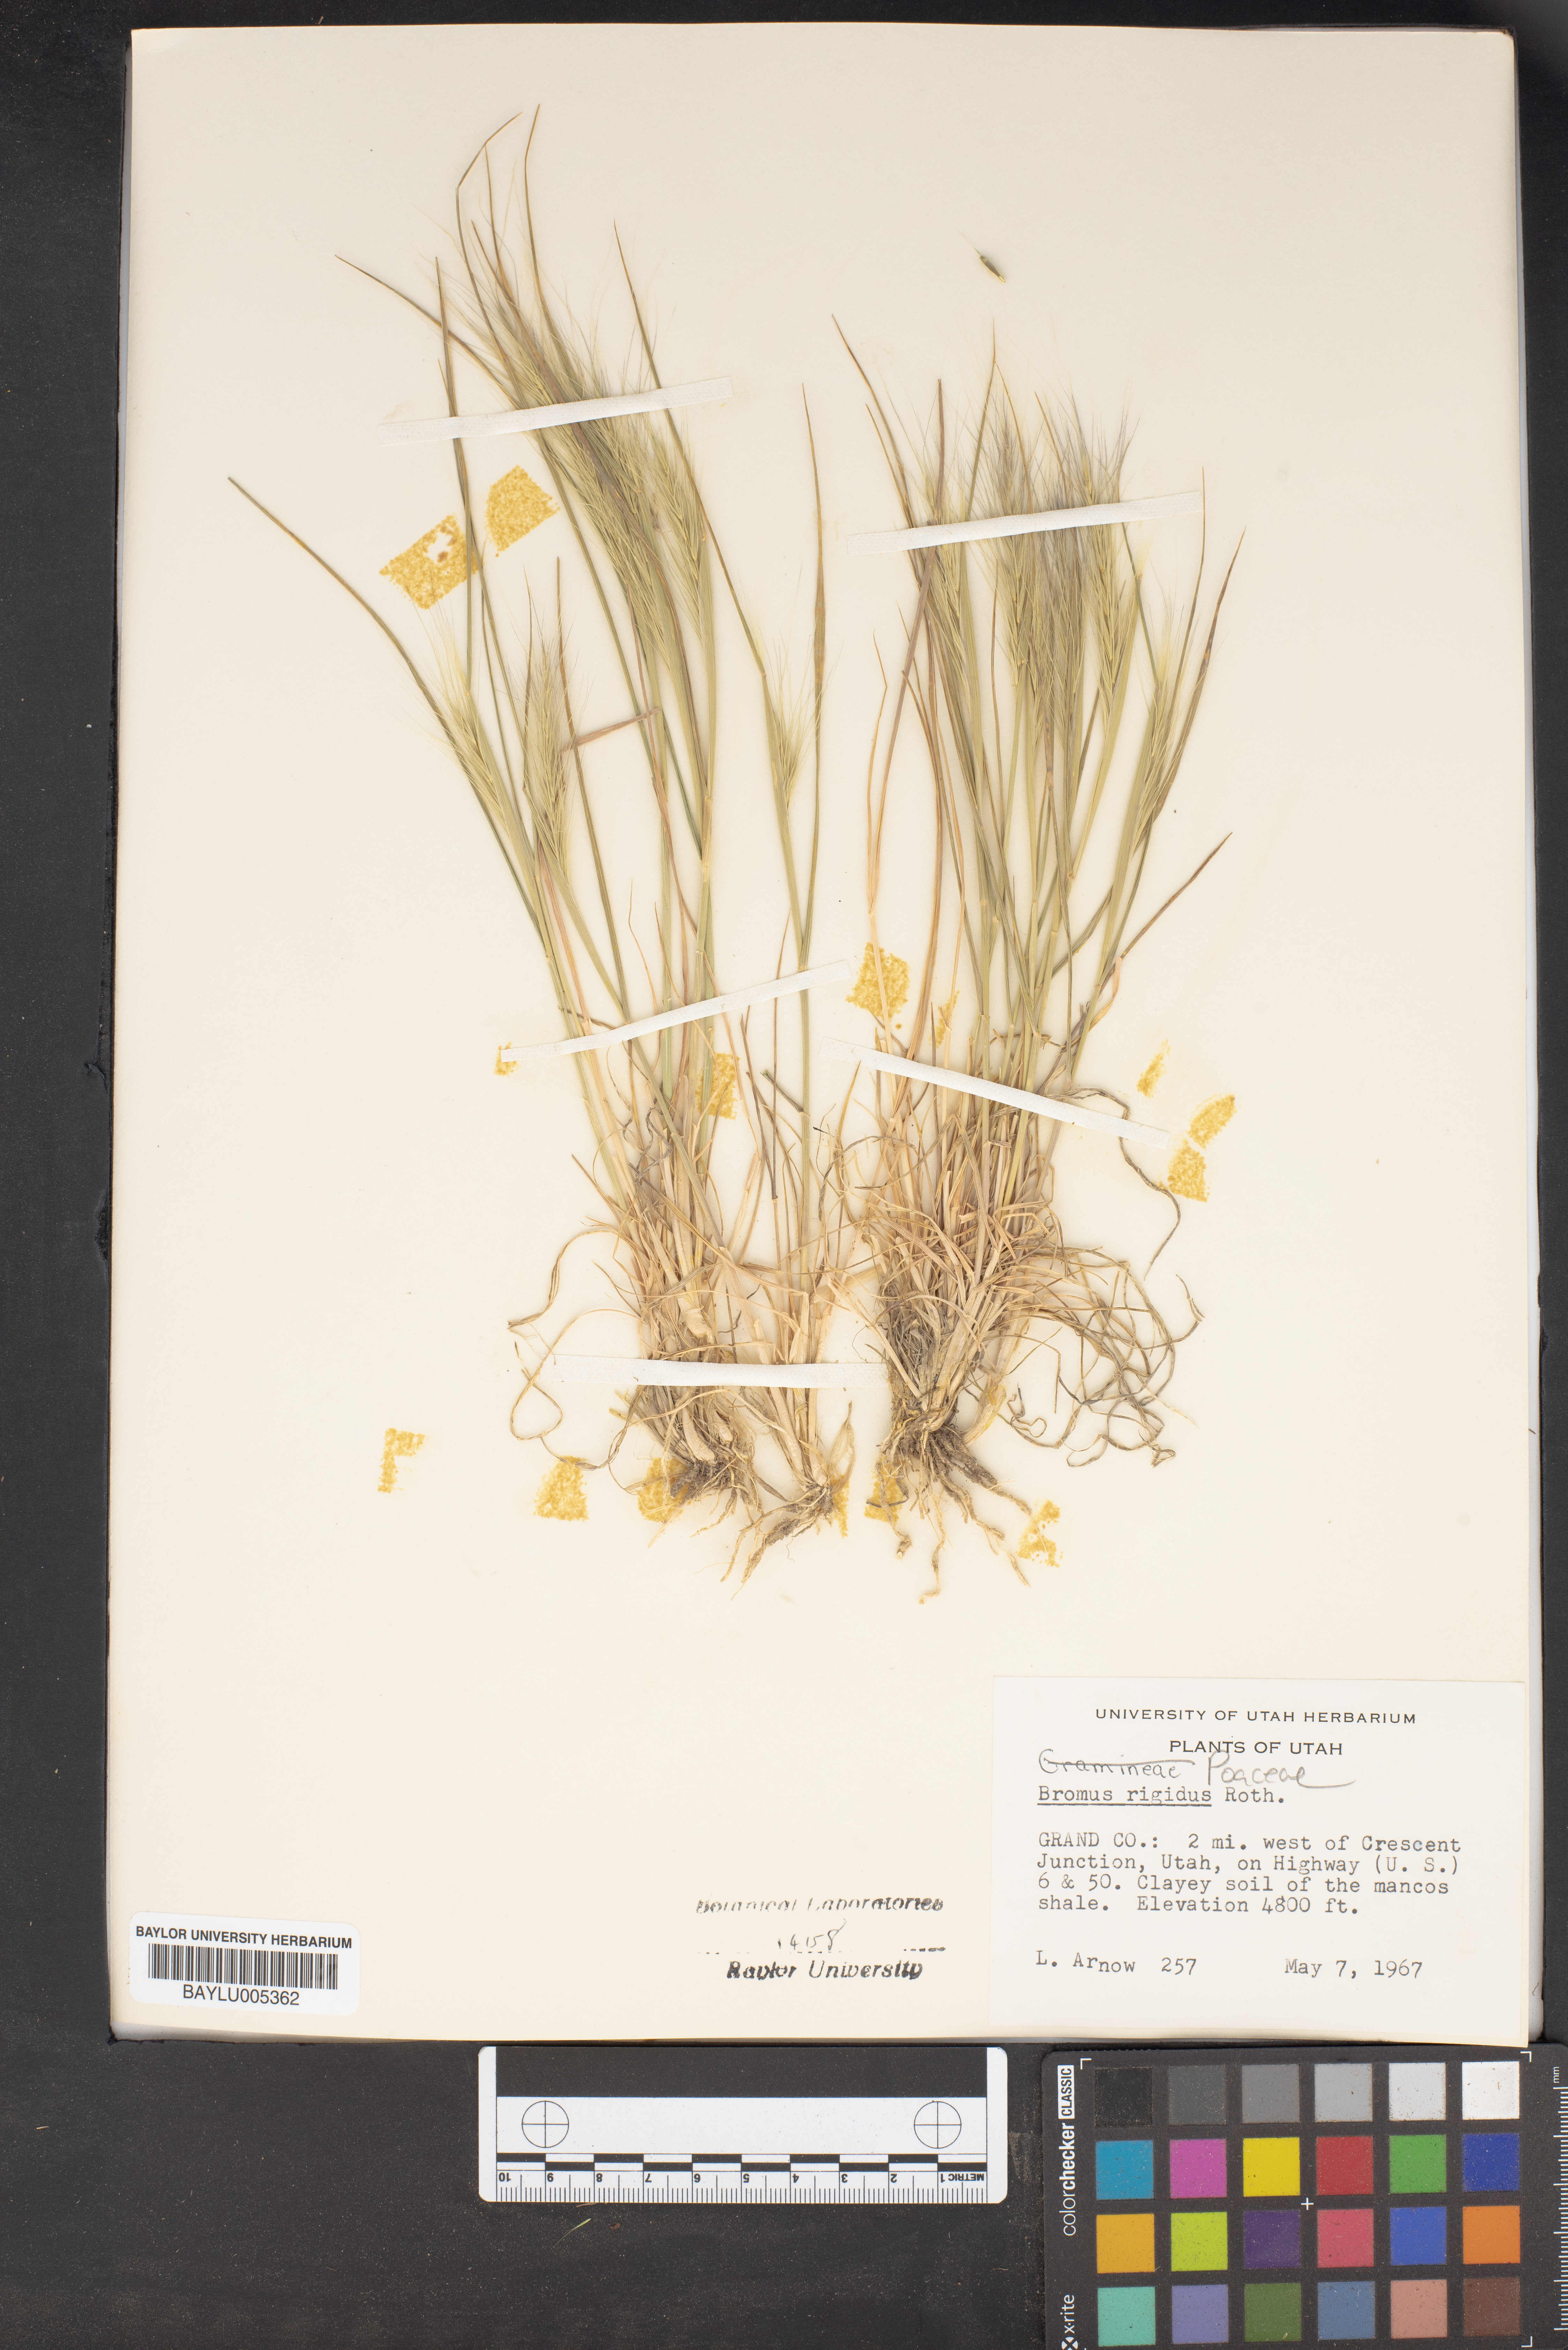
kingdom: Plantae
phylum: Tracheophyta
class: Liliopsida
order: Poales
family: Poaceae
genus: Bromus
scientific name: Bromus rigidus
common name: Ripgut brome
